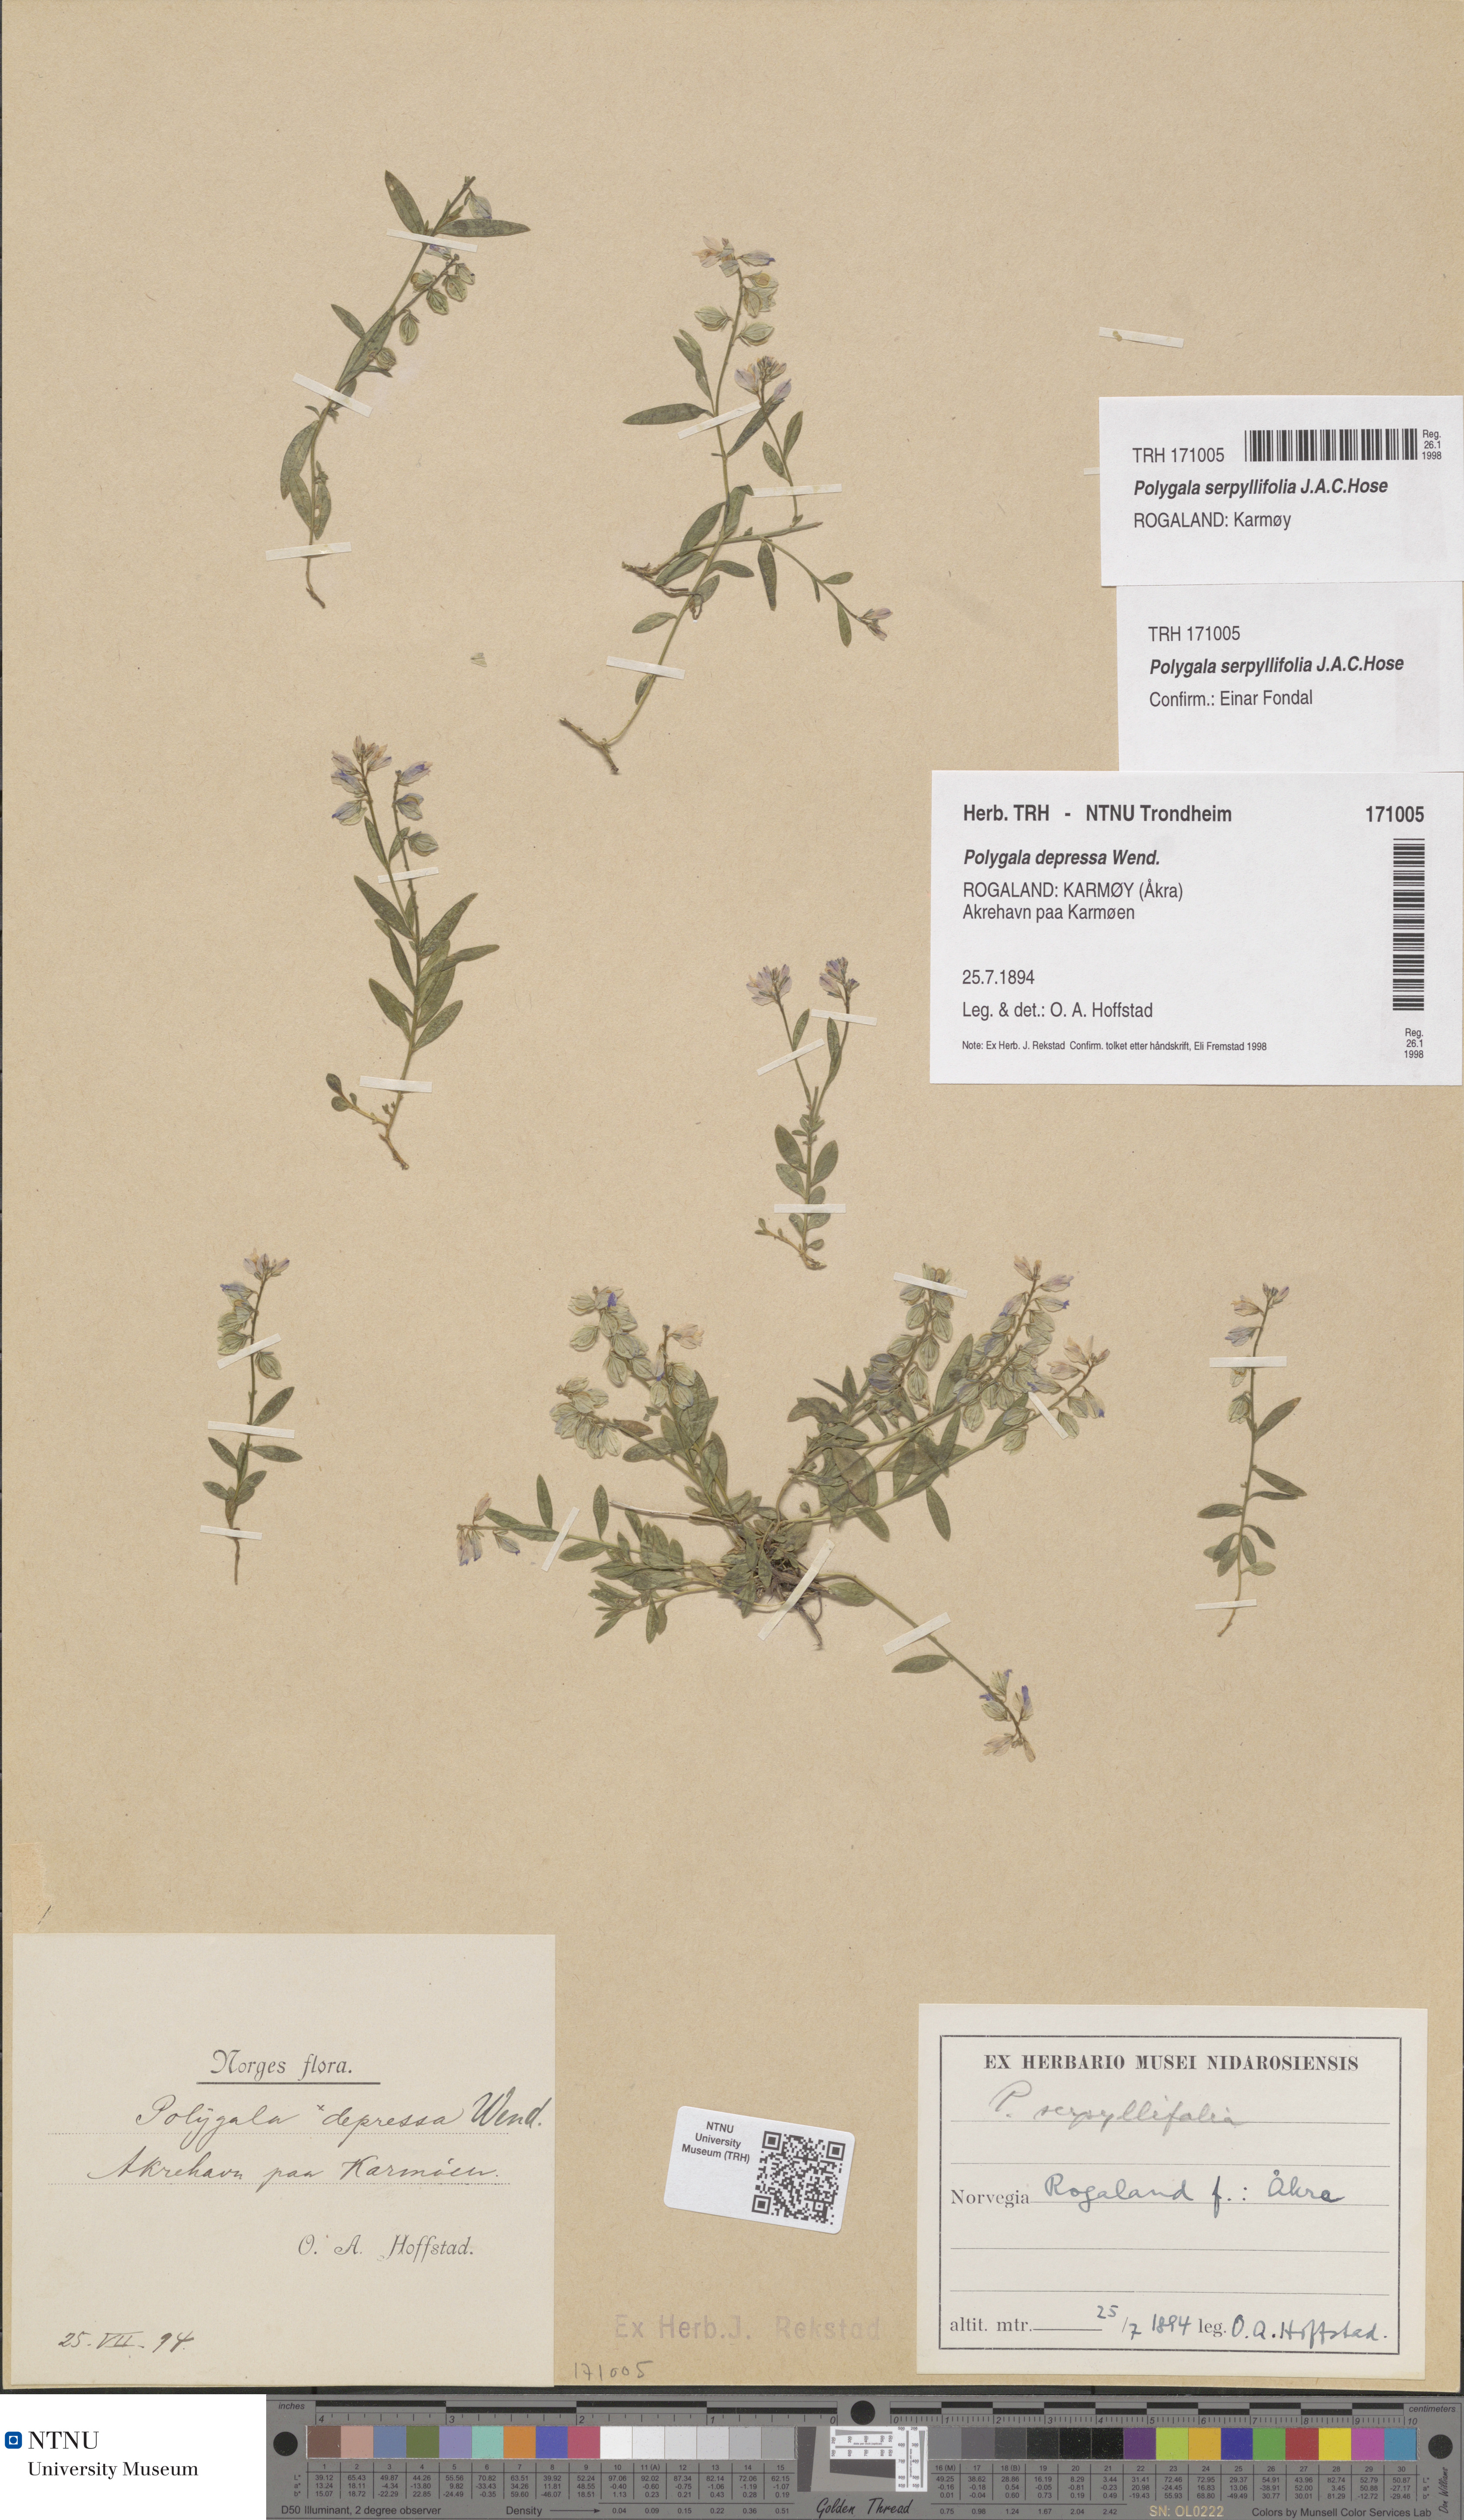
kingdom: Plantae
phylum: Tracheophyta
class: Magnoliopsida
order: Fabales
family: Polygalaceae
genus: Polygala
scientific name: Polygala serpyllifolia
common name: Heath milkwort
